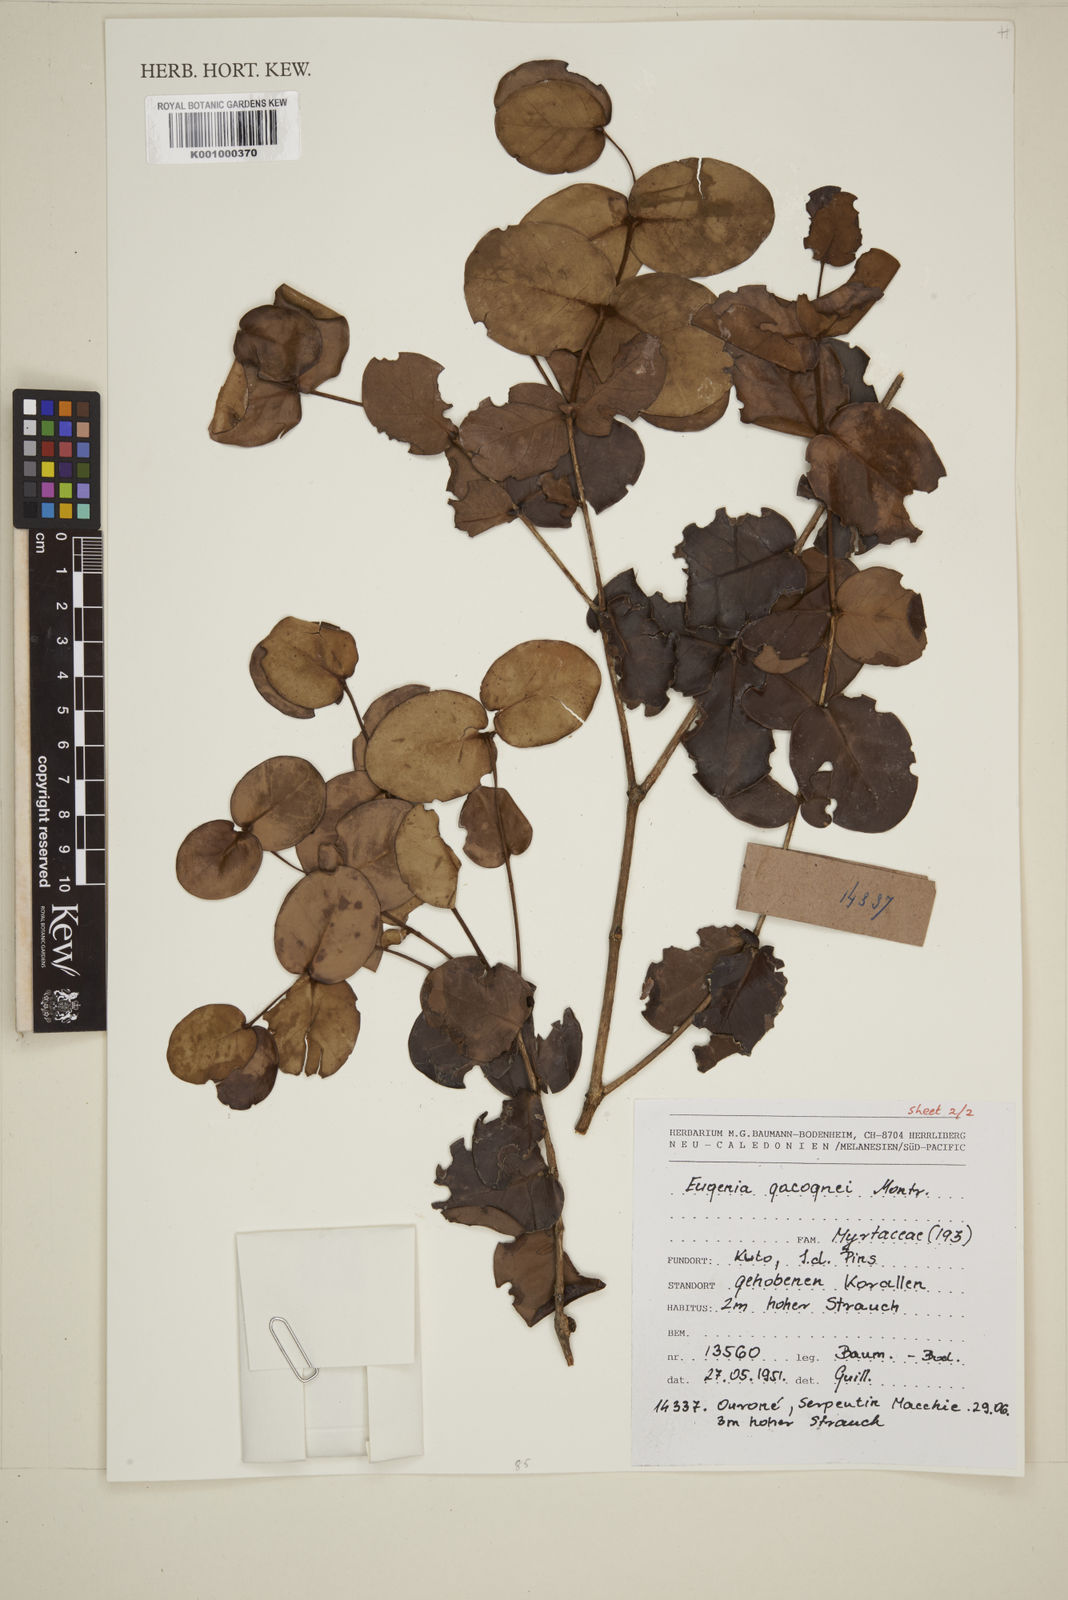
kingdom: Plantae
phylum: Tracheophyta
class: Magnoliopsida
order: Myrtales
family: Myrtaceae
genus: Eugenia
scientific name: Eugenia gacognei
